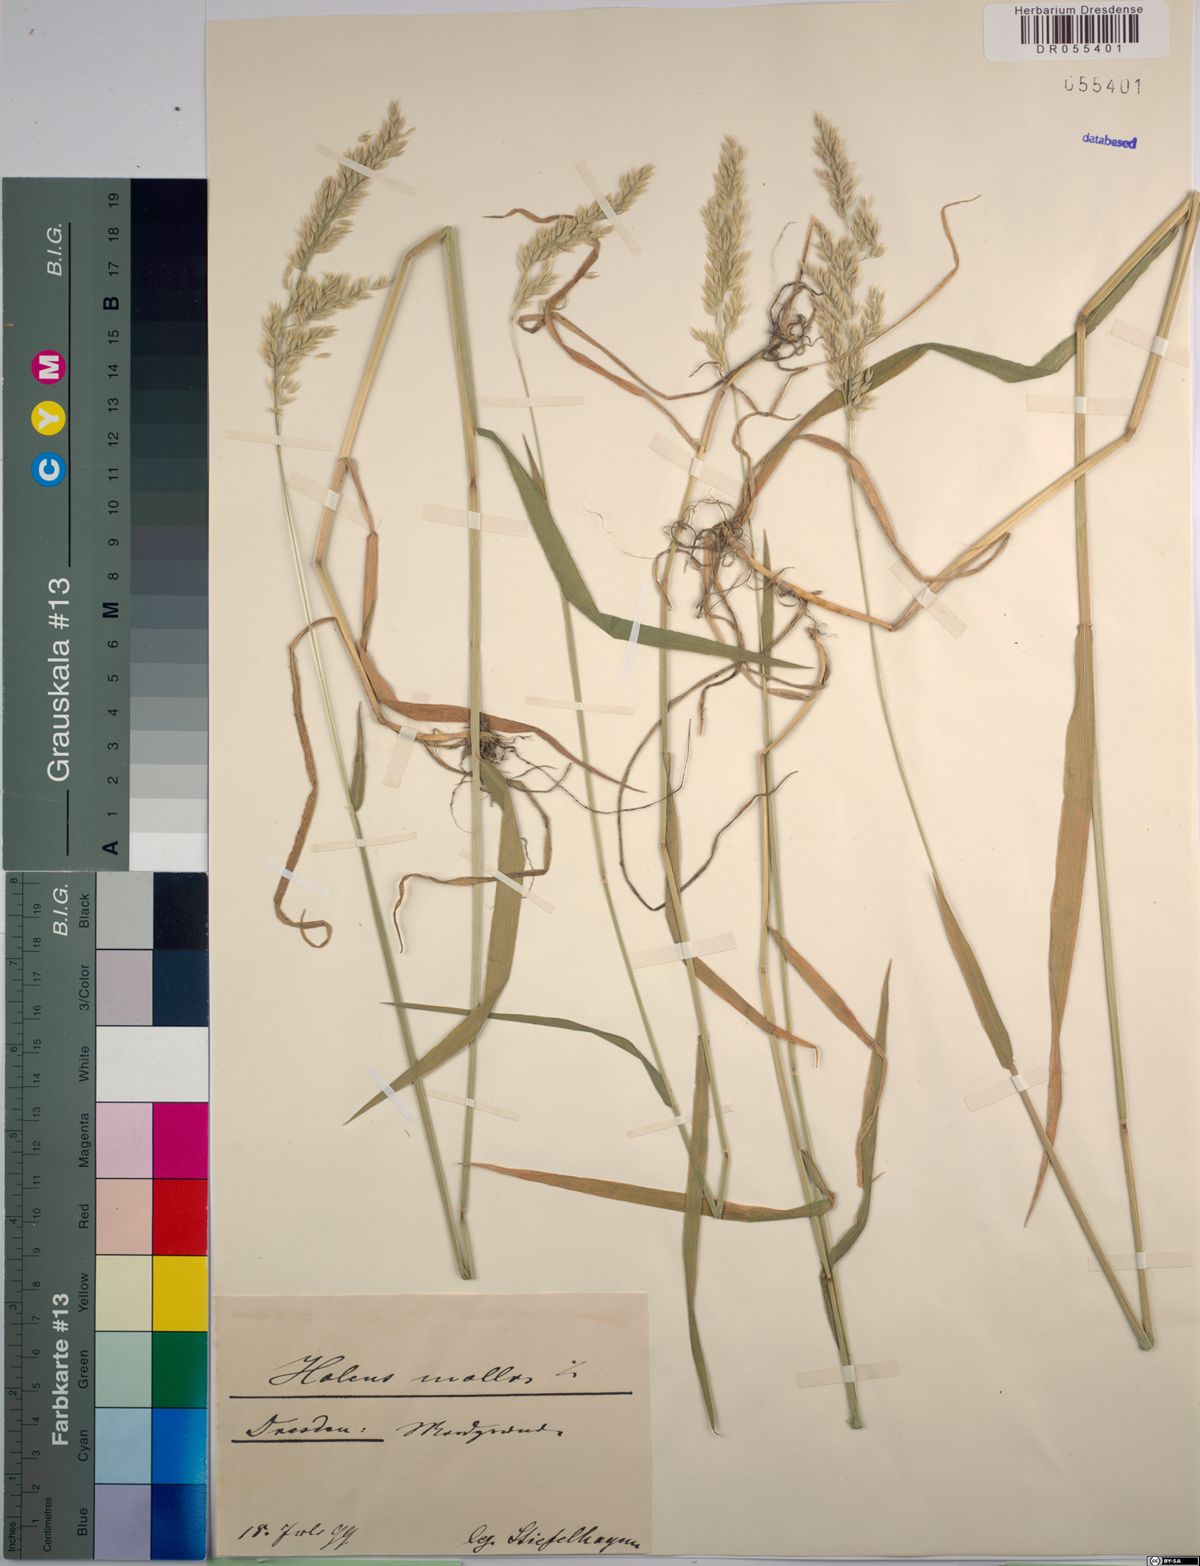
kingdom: Plantae
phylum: Tracheophyta
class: Liliopsida
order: Poales
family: Poaceae
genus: Holcus
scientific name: Holcus mollis
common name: Creeping velvetgrass
